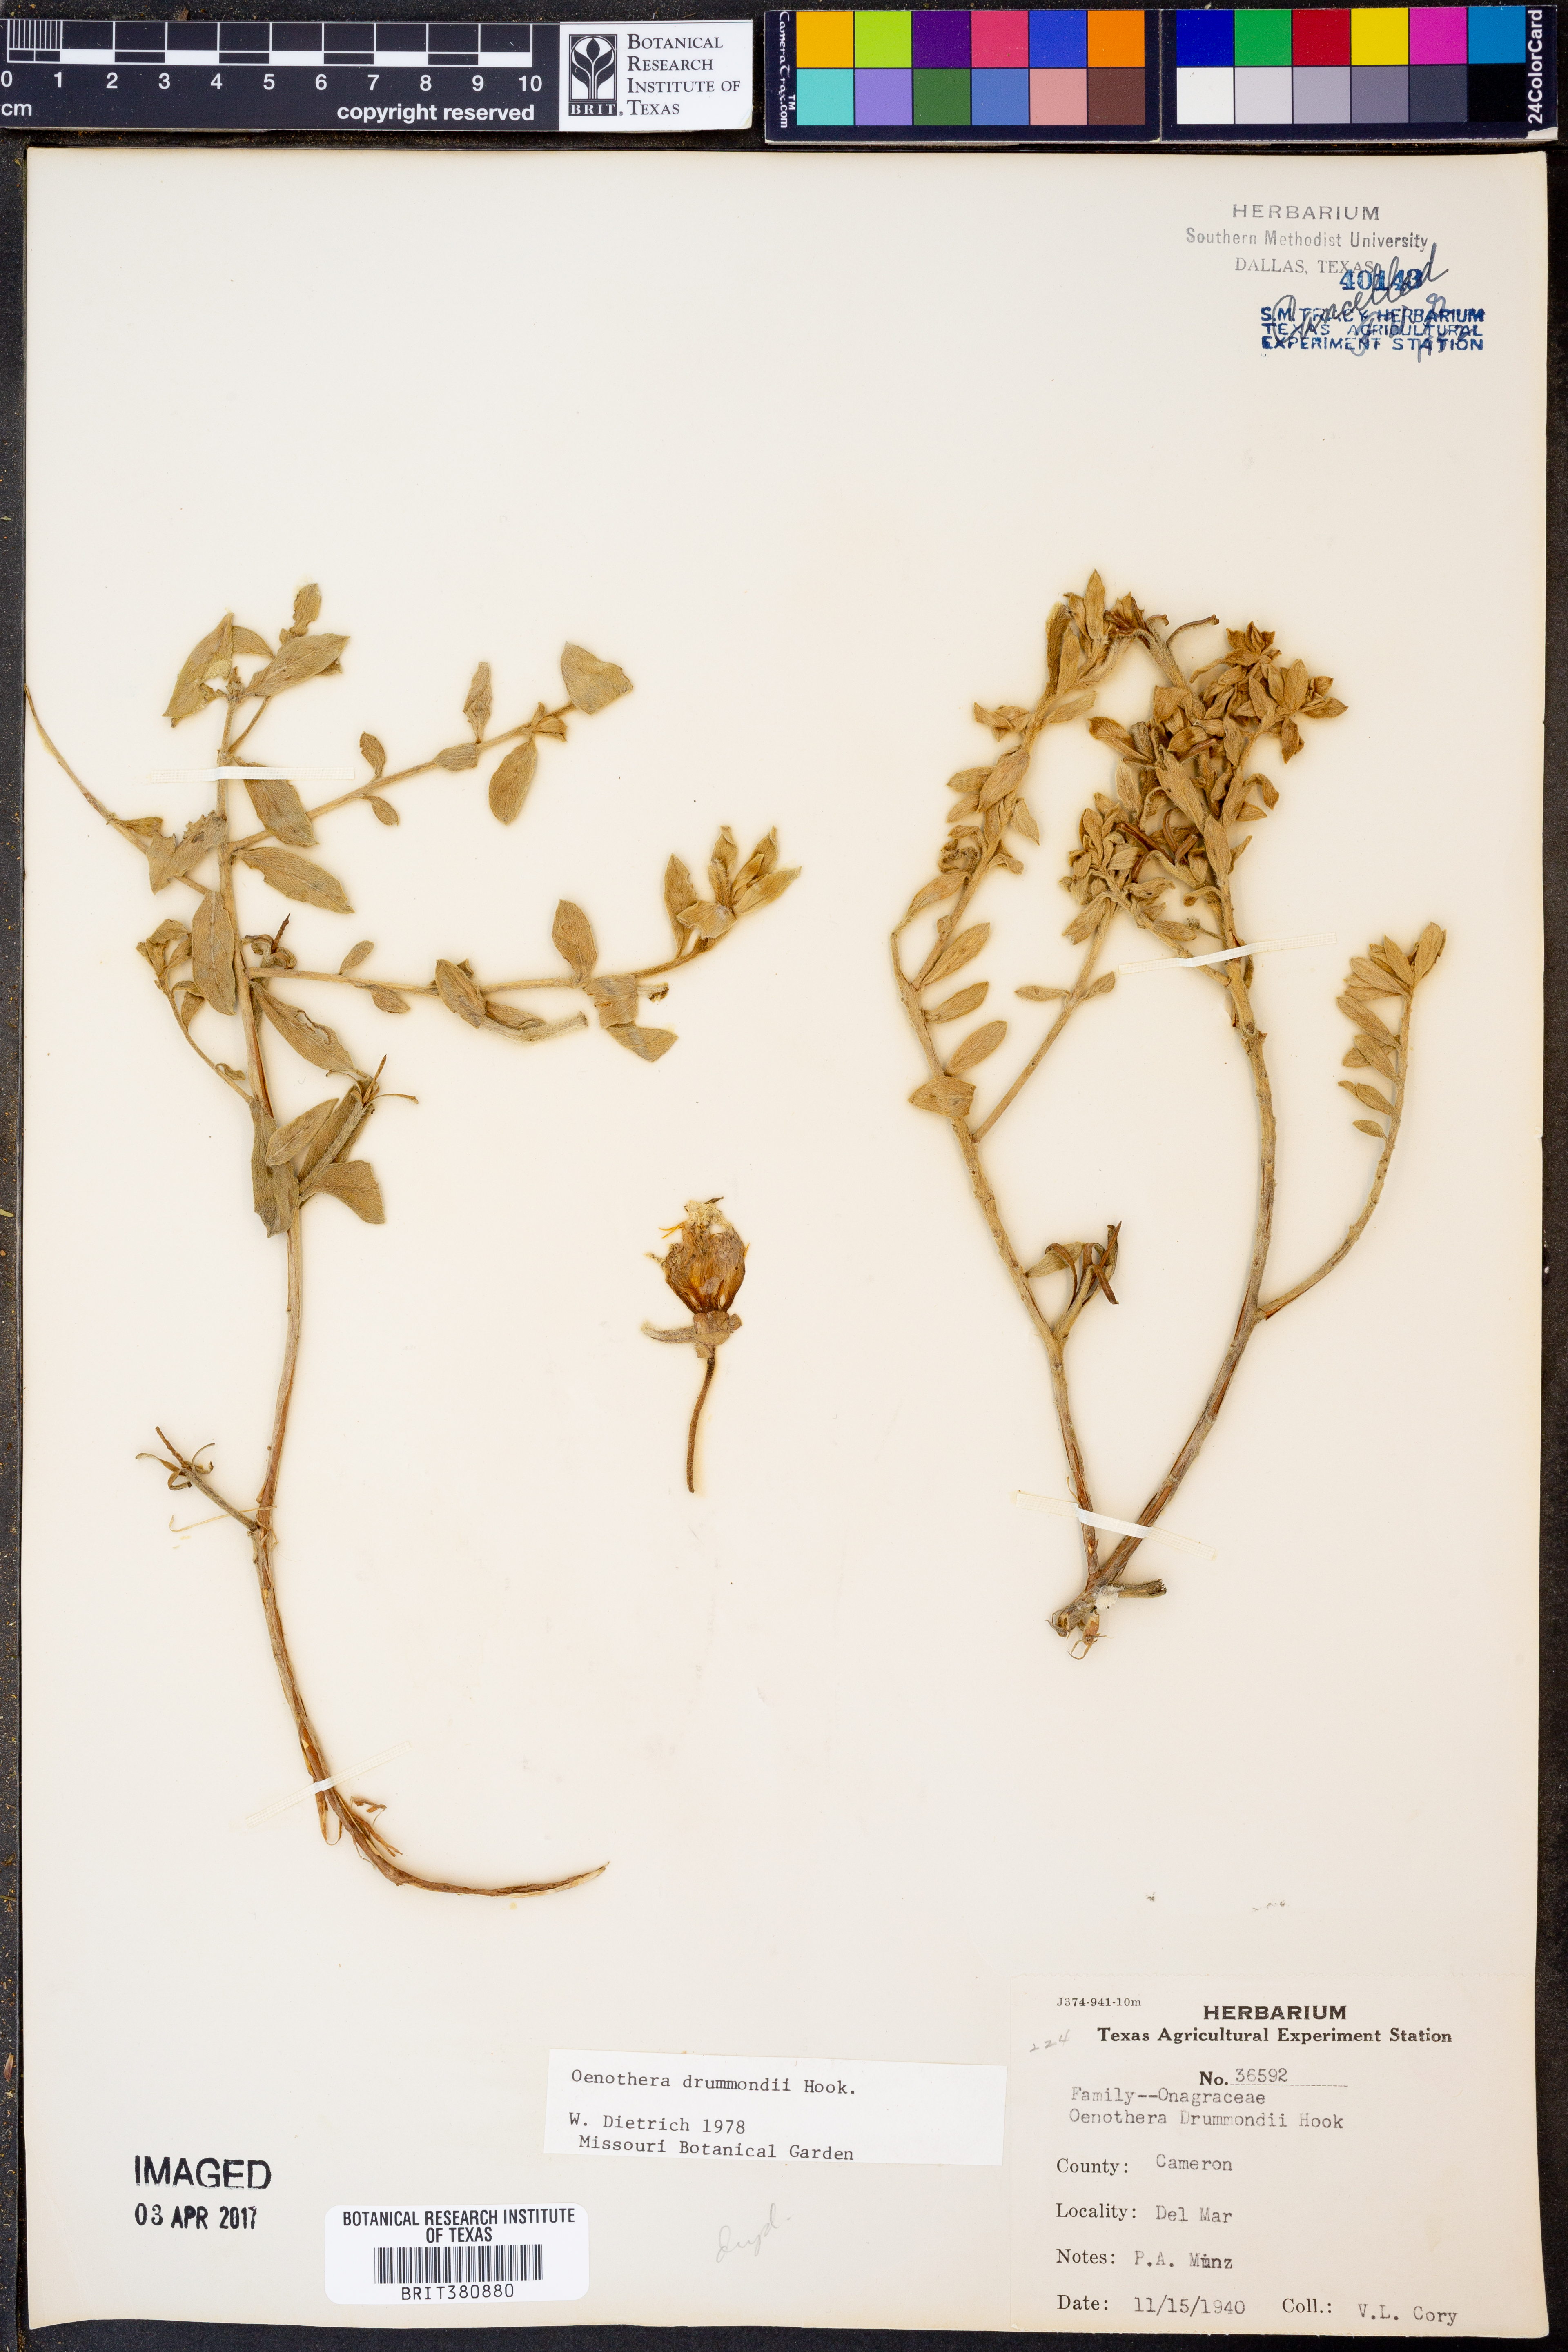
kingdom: Plantae
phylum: Tracheophyta
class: Magnoliopsida
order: Myrtales
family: Onagraceae
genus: Oenothera
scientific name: Oenothera drummondii
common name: Beach evening-primrose
